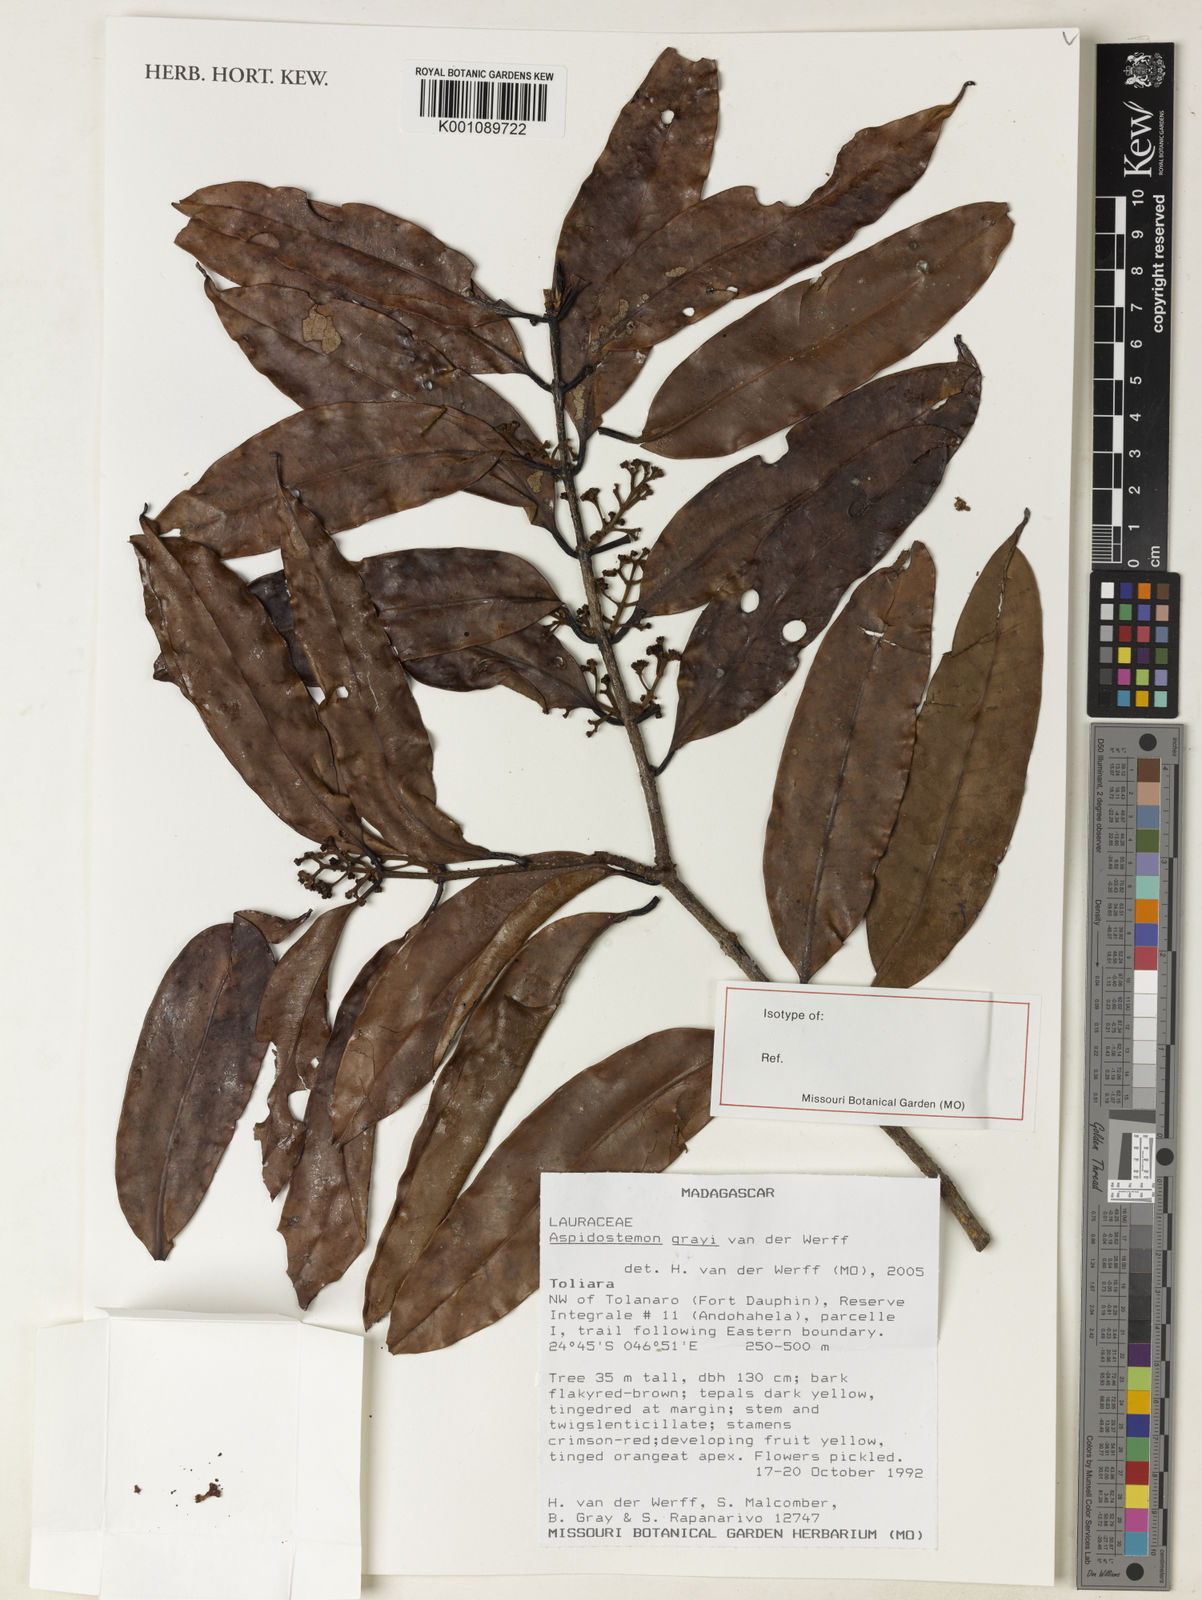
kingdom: Plantae
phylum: Tracheophyta
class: Magnoliopsida
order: Laurales
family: Lauraceae
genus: Aspidostemon
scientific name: Aspidostemon grayi
